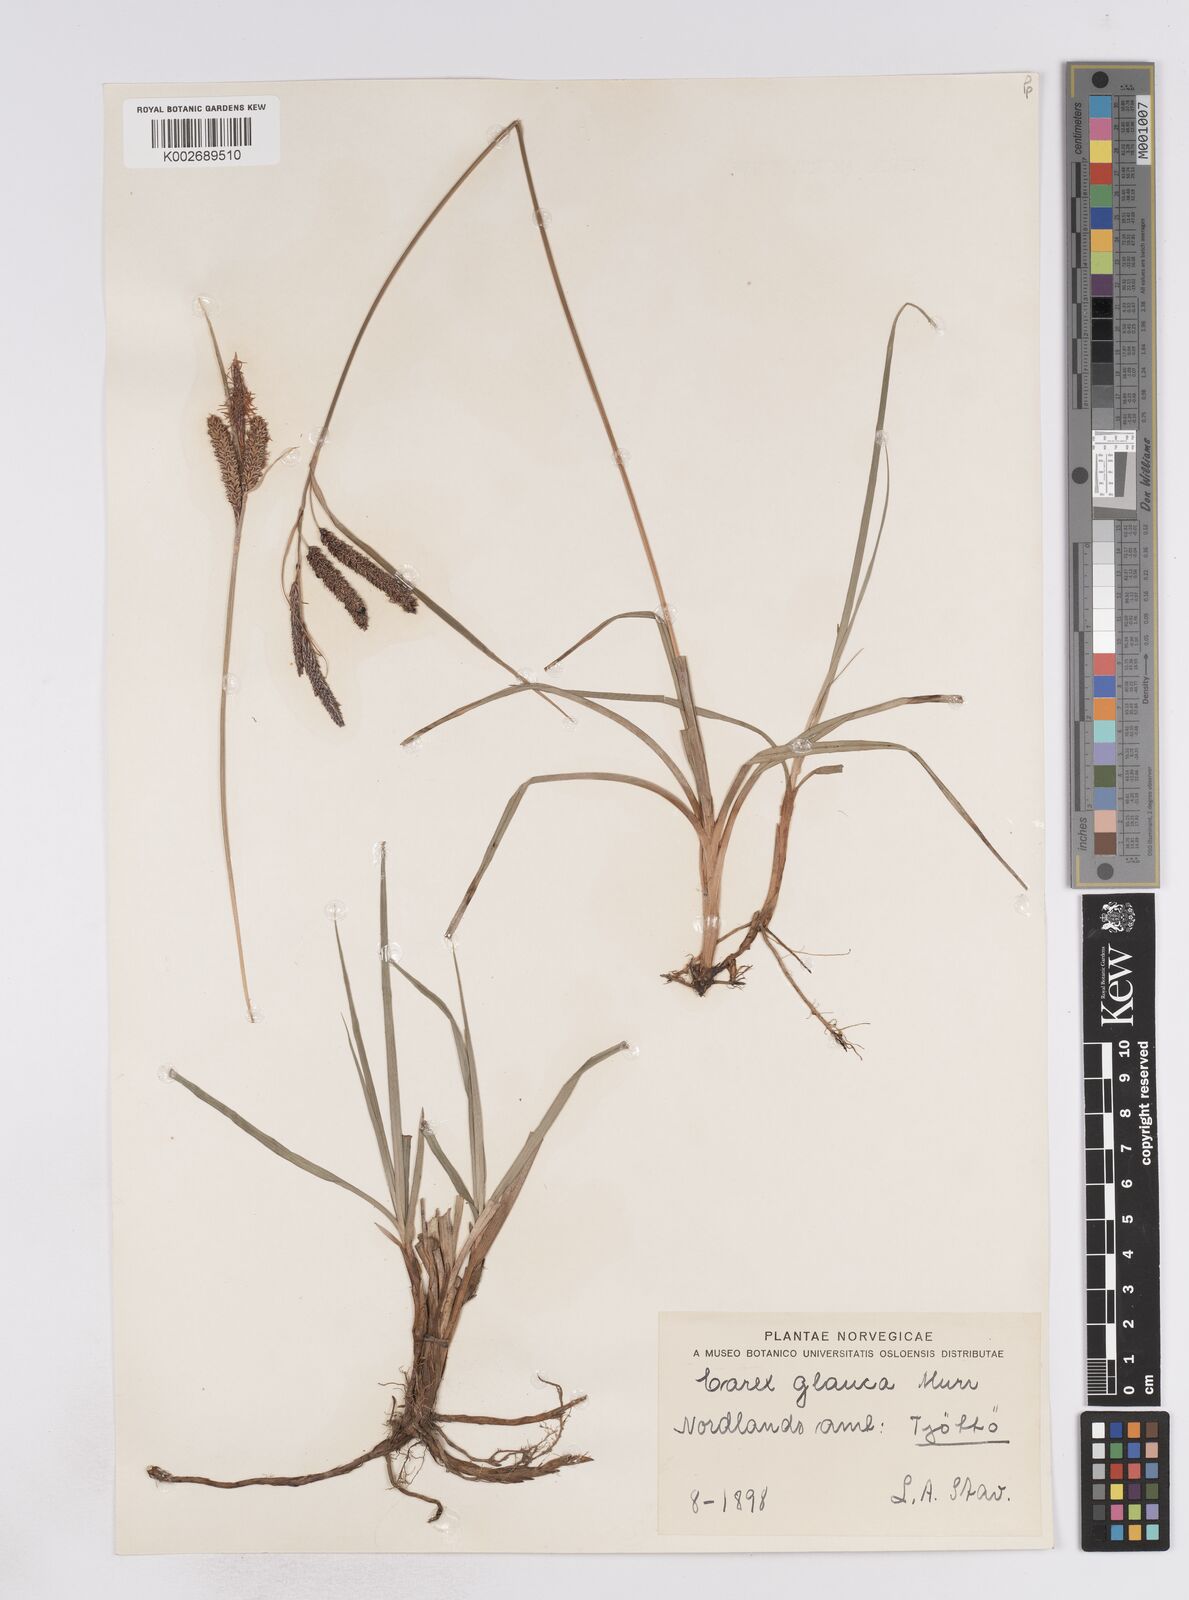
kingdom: Plantae
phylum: Tracheophyta
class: Liliopsida
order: Poales
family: Cyperaceae
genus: Carex
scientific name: Carex flacca
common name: Glaucous sedge
